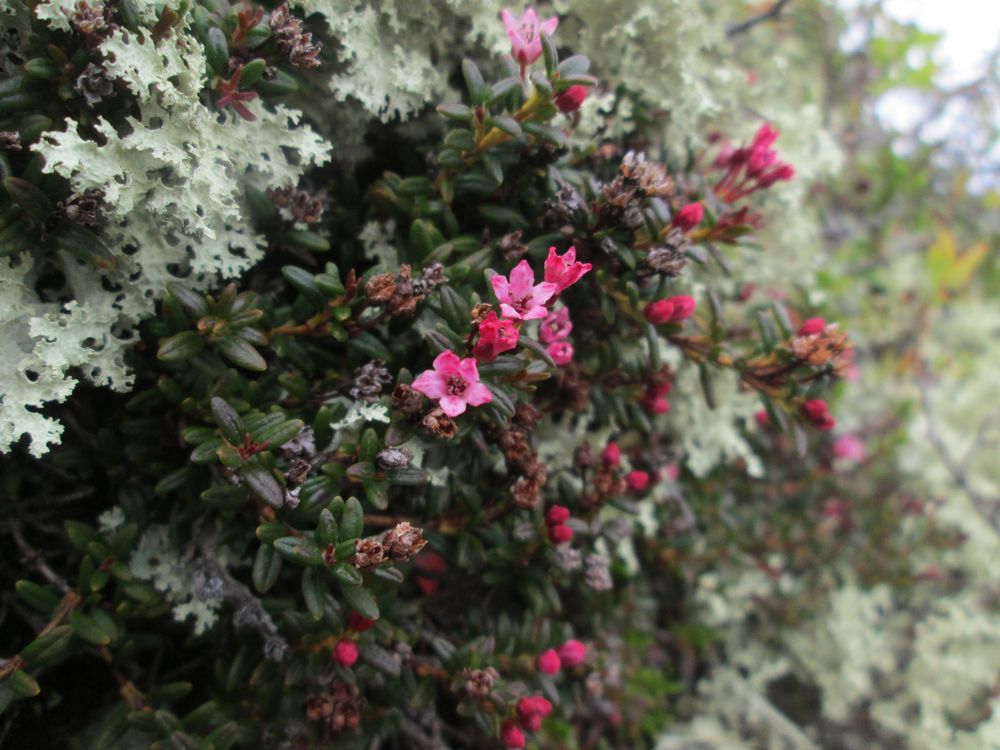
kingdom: Plantae
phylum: Tracheophyta
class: Magnoliopsida
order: Ericales
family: Ericaceae
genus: Kalmia
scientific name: Kalmia procumbens
